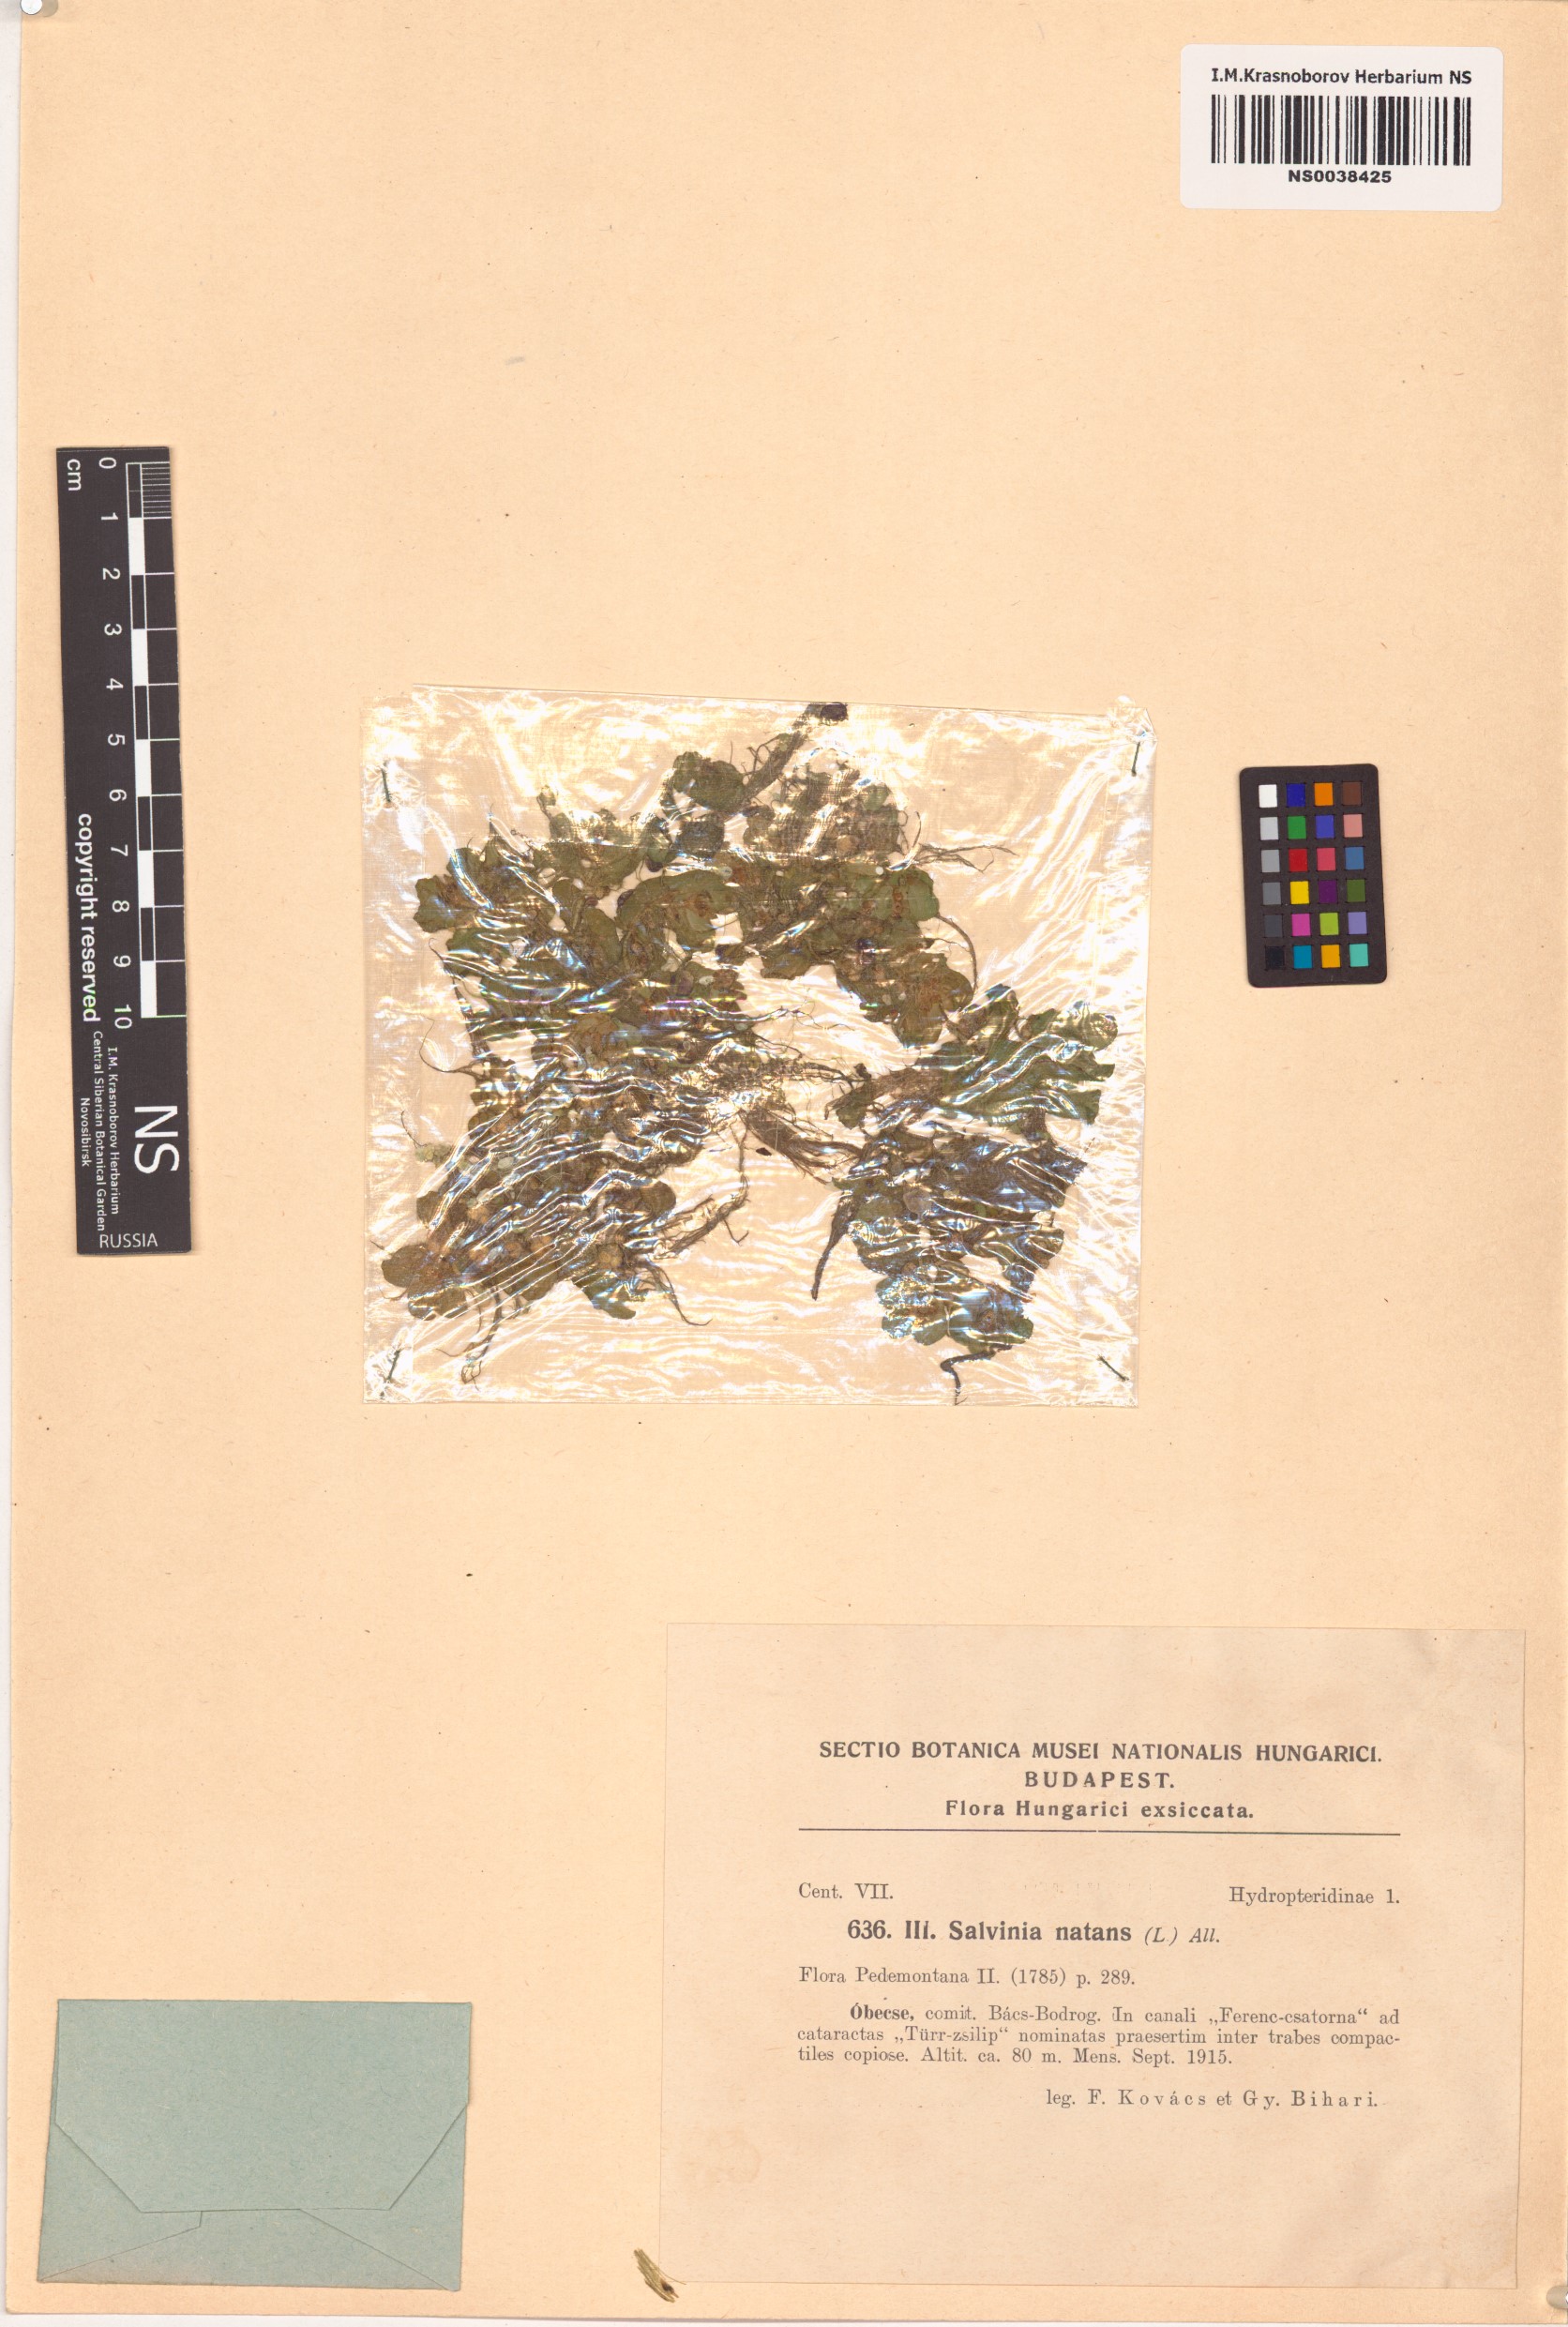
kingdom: Plantae
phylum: Tracheophyta
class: Polypodiopsida
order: Salviniales
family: Salviniaceae
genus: Salvinia
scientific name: Salvinia natans
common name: Floating fern
